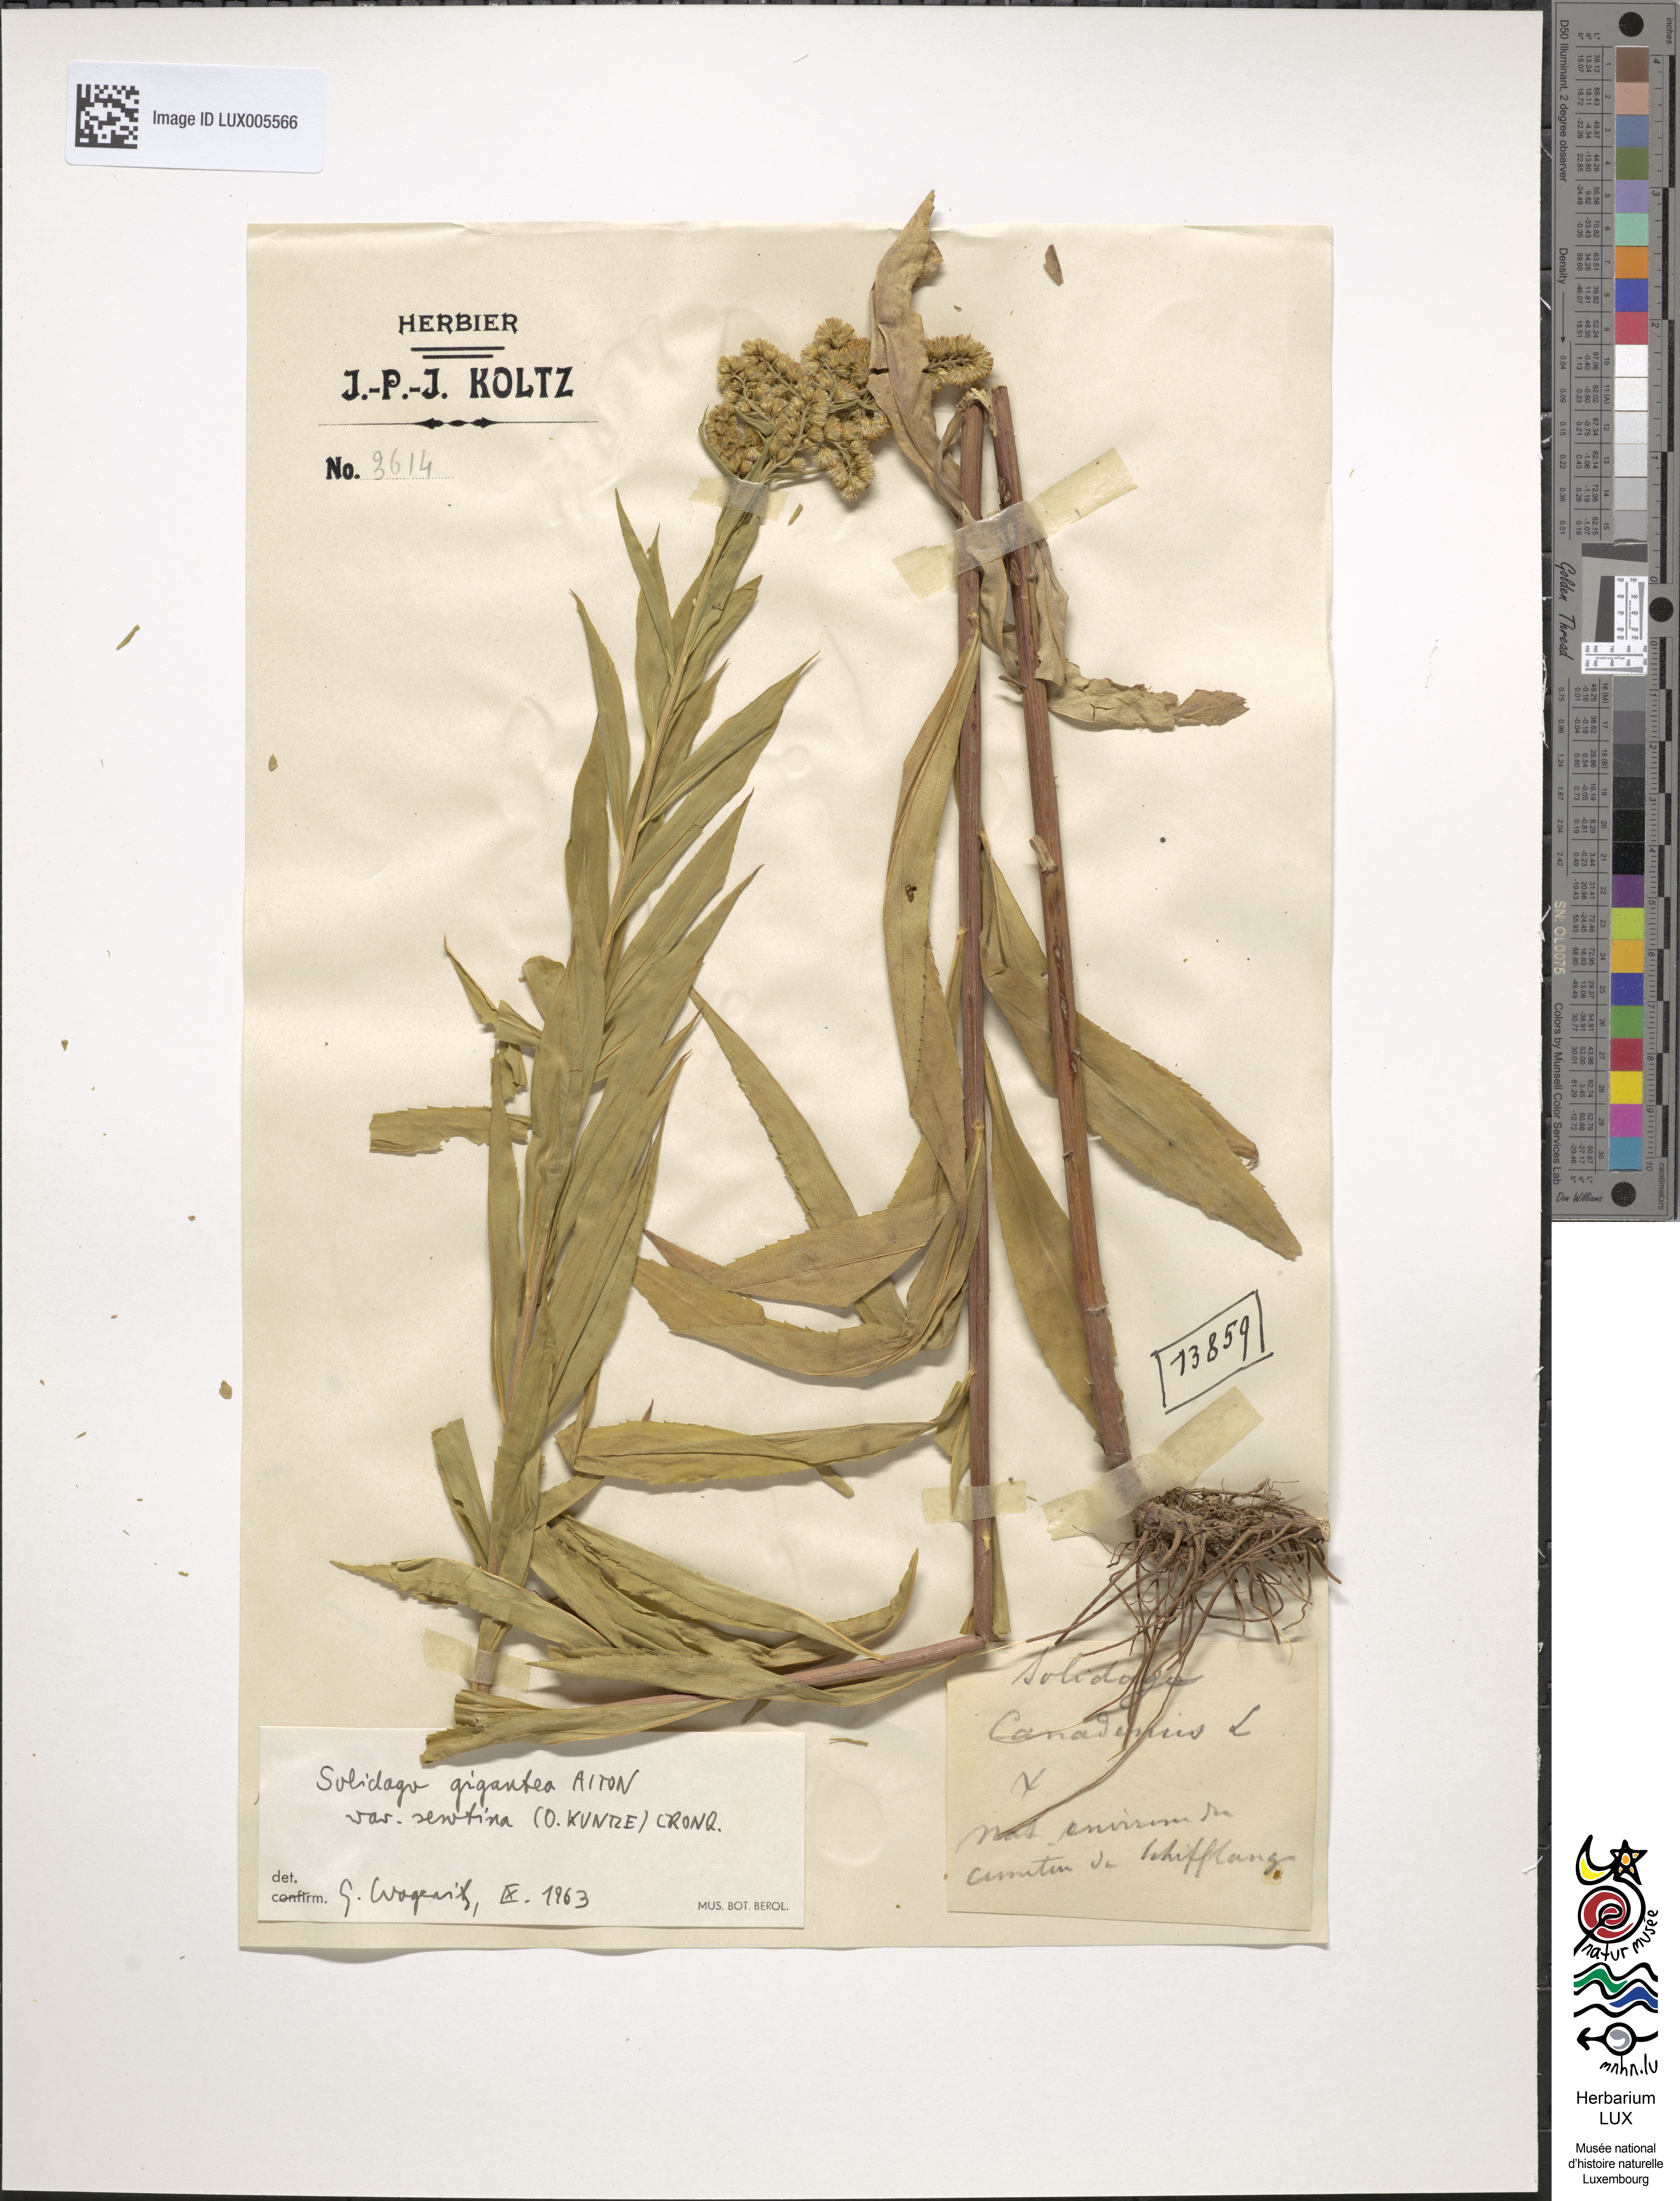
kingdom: Plantae
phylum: Tracheophyta
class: Magnoliopsida
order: Asterales
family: Asteraceae
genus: Solidago
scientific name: Solidago gigantea
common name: Giant goldenrod
